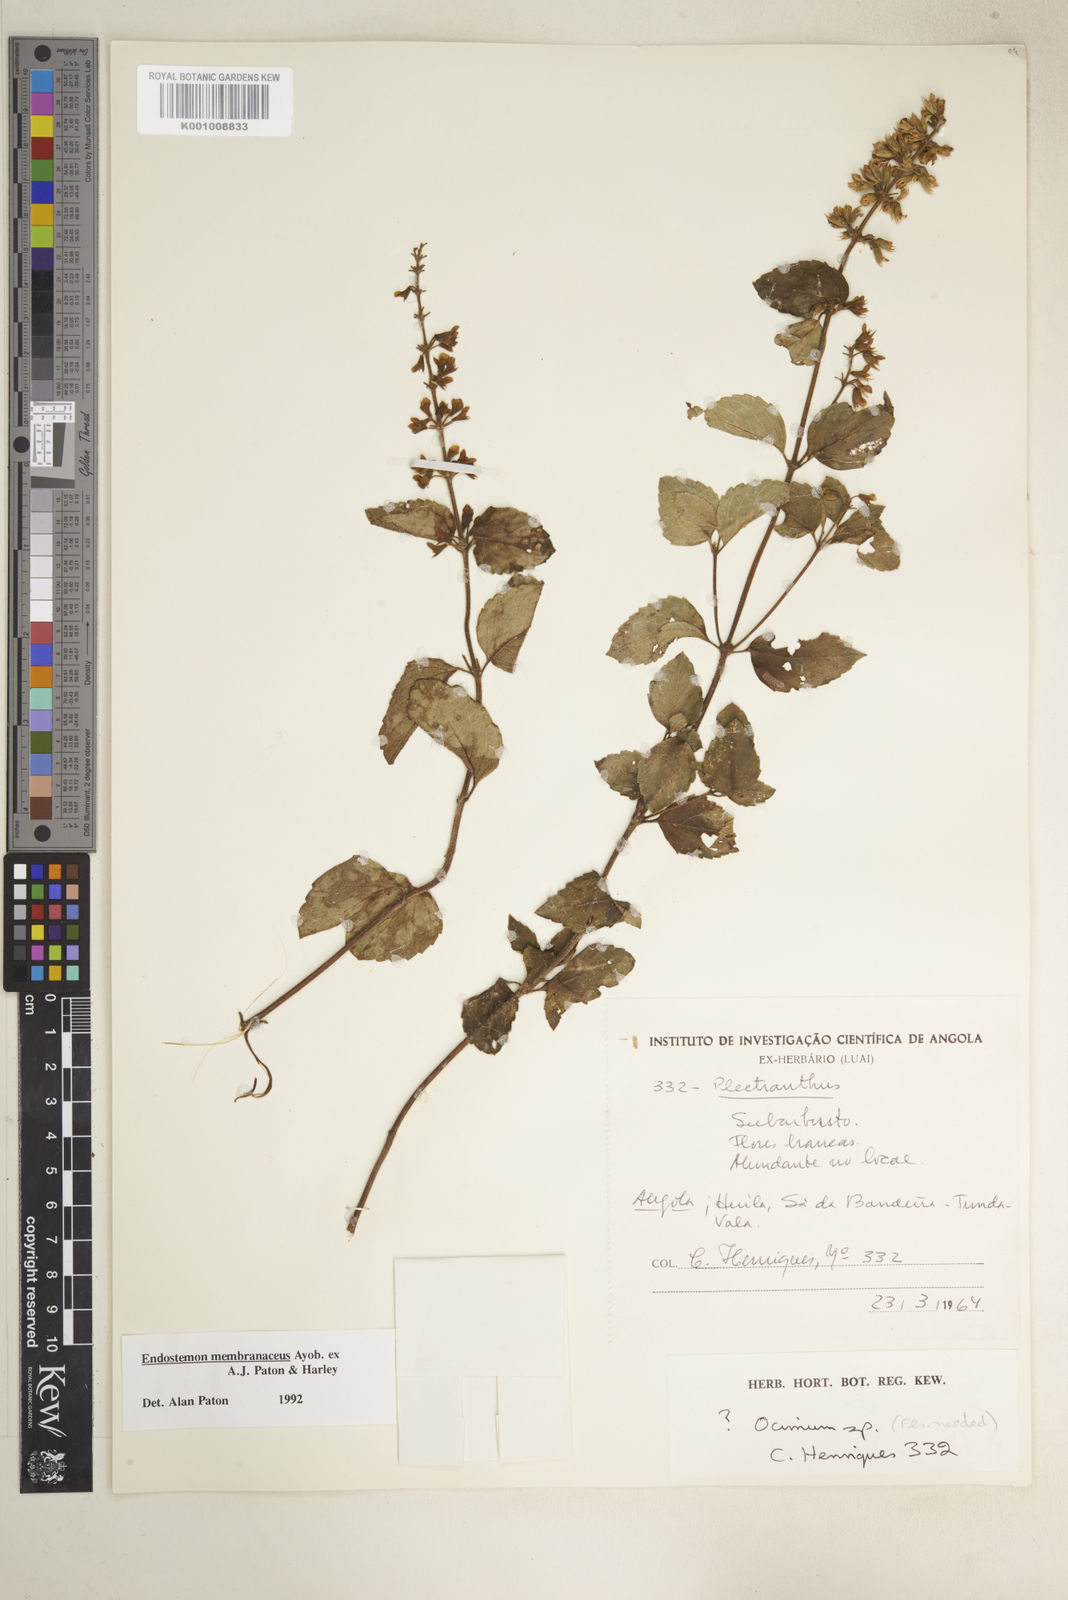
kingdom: Plantae
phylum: Tracheophyta
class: Magnoliopsida
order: Lamiales
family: Lamiaceae
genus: Endostemon
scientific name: Endostemon membranaceus
